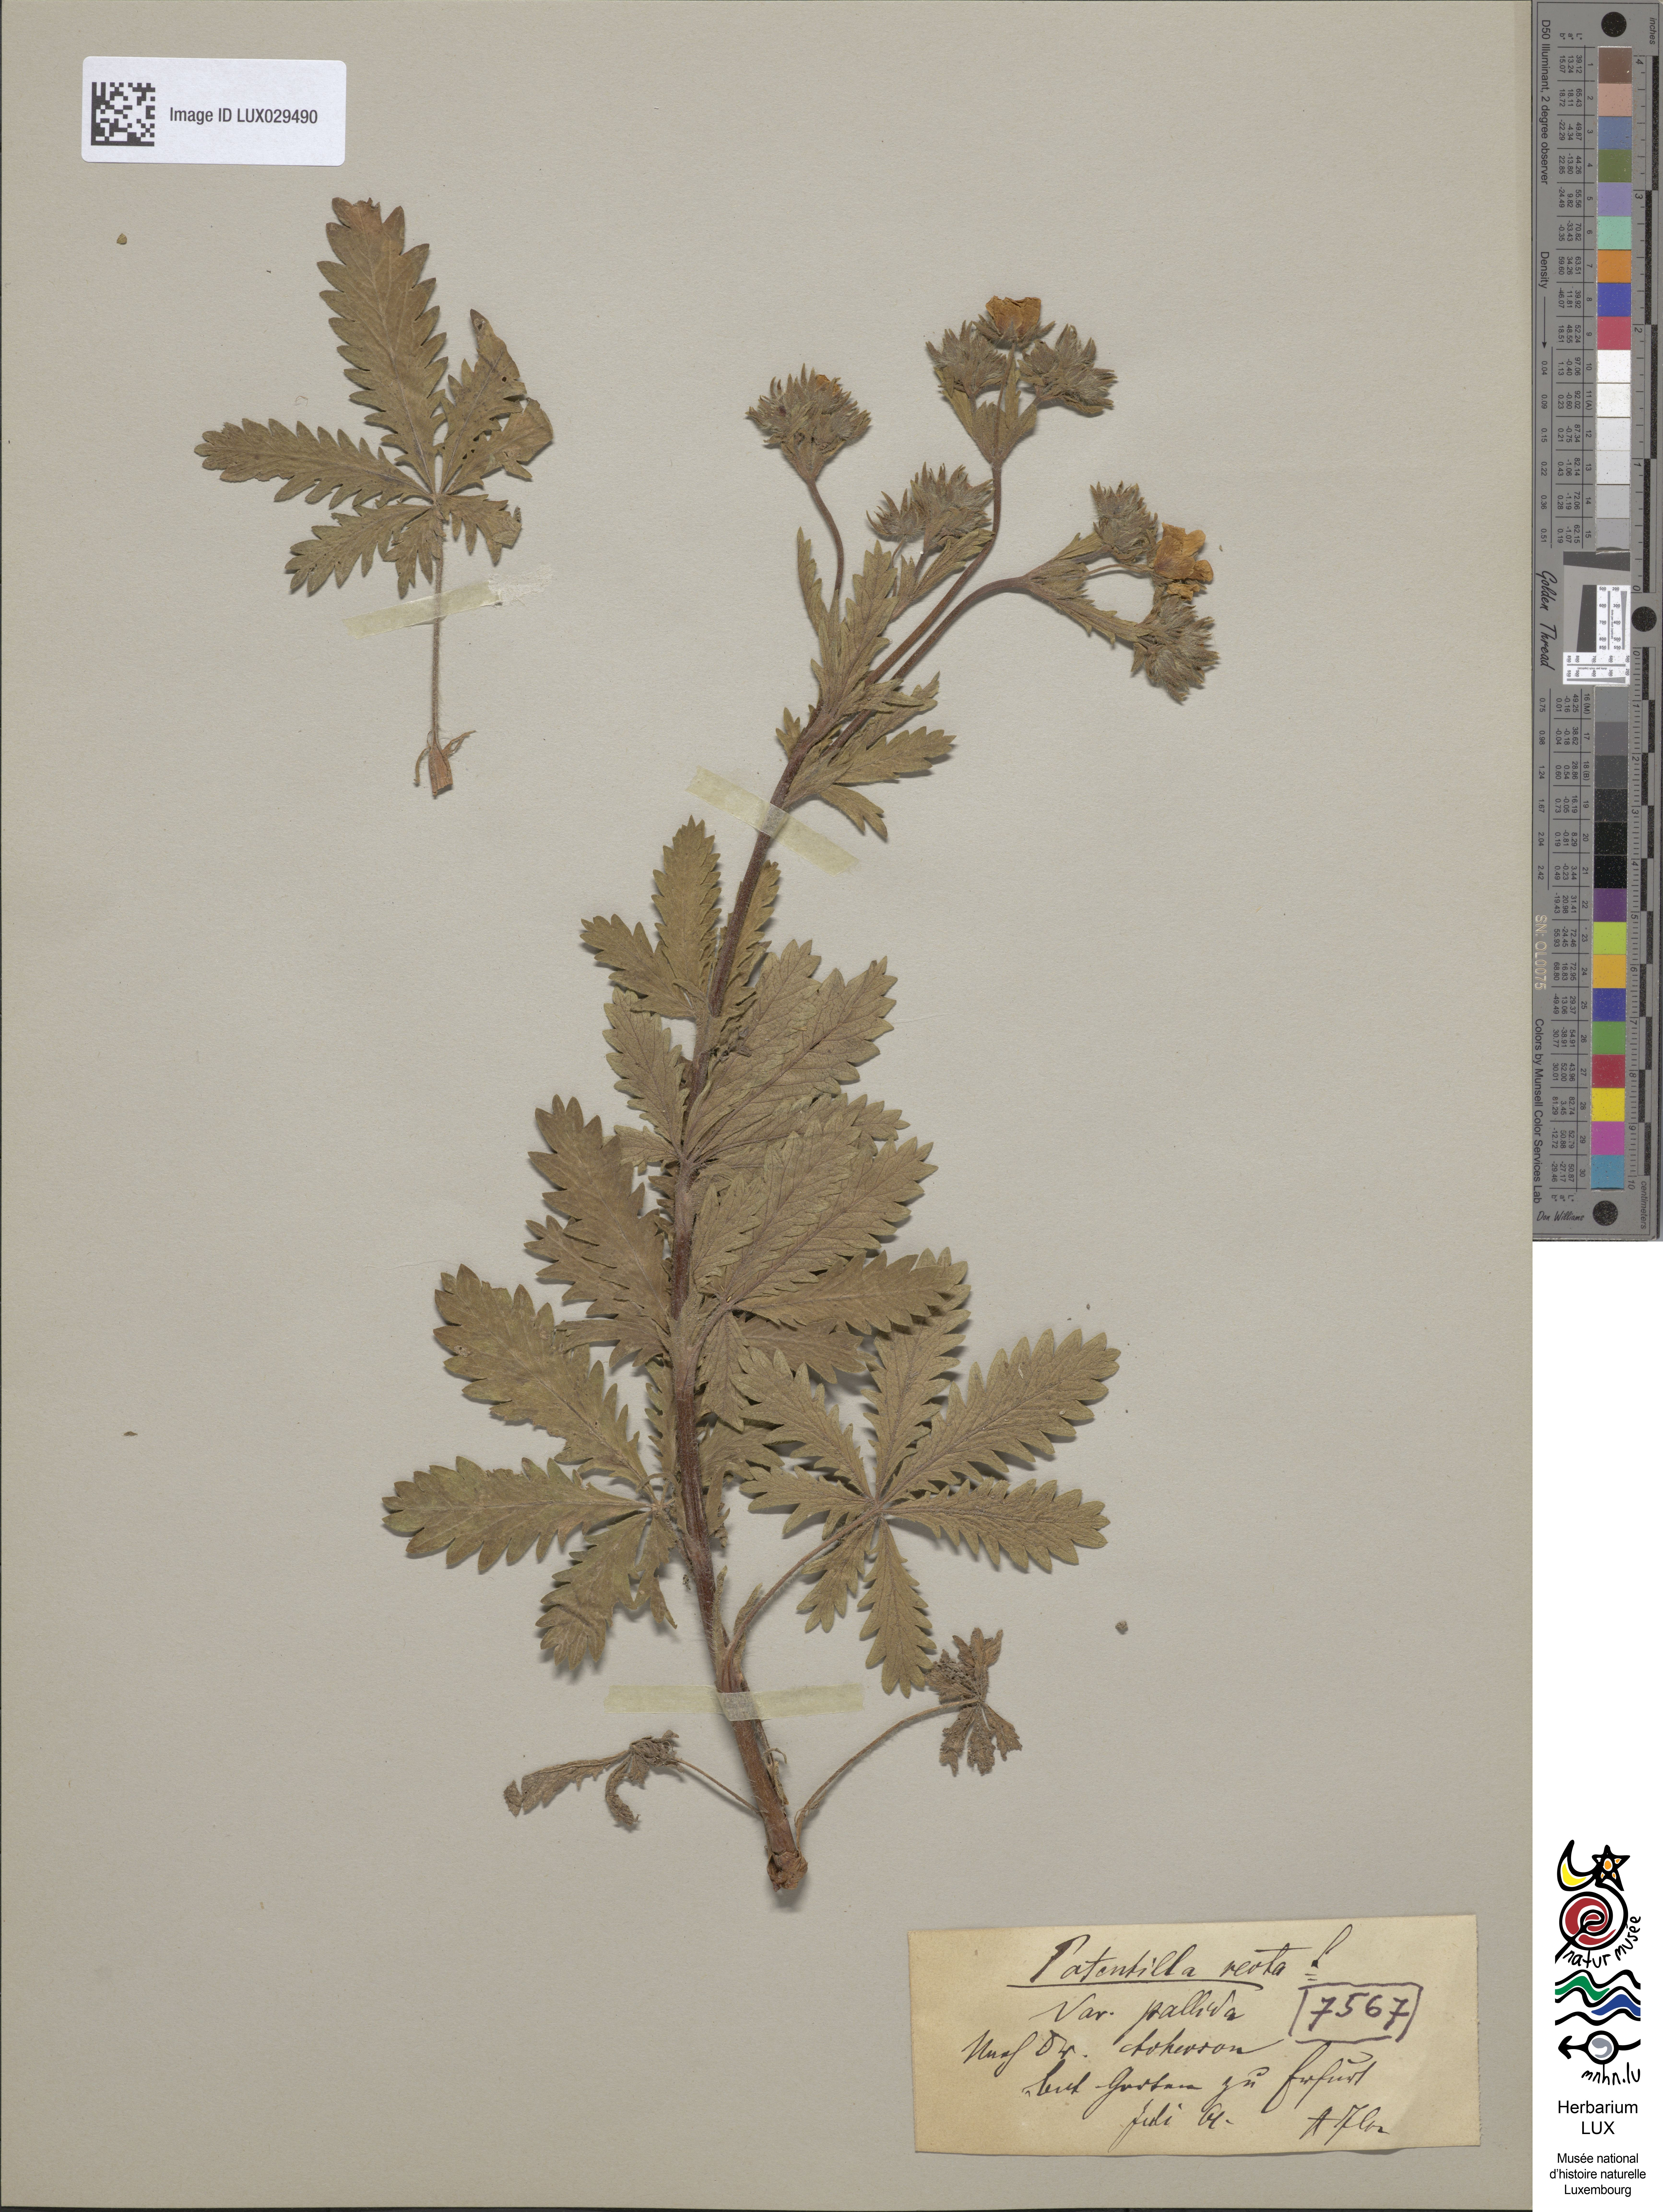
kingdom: Plantae
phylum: Tracheophyta
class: Magnoliopsida
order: Rosales
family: Rosaceae
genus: Potentilla
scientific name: Potentilla recta
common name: Sulphur cinquefoil
